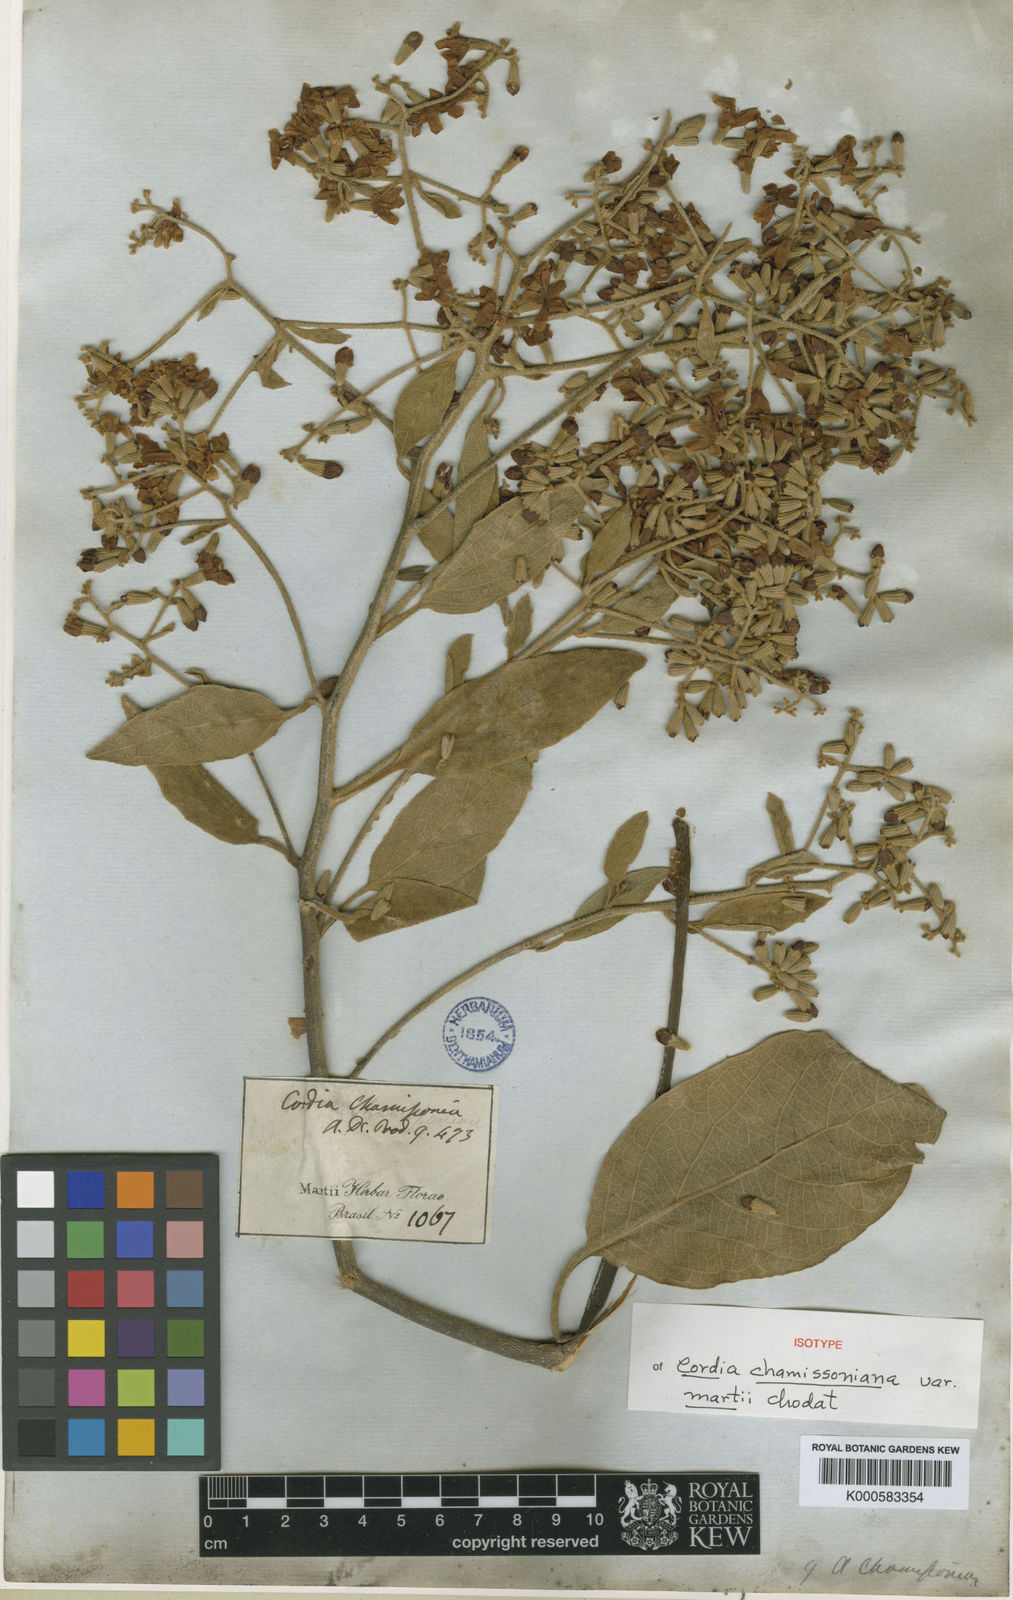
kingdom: Plantae
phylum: Tracheophyta
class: Magnoliopsida
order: Boraginales
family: Cordiaceae
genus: Cordia
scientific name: Cordia trichotoma
